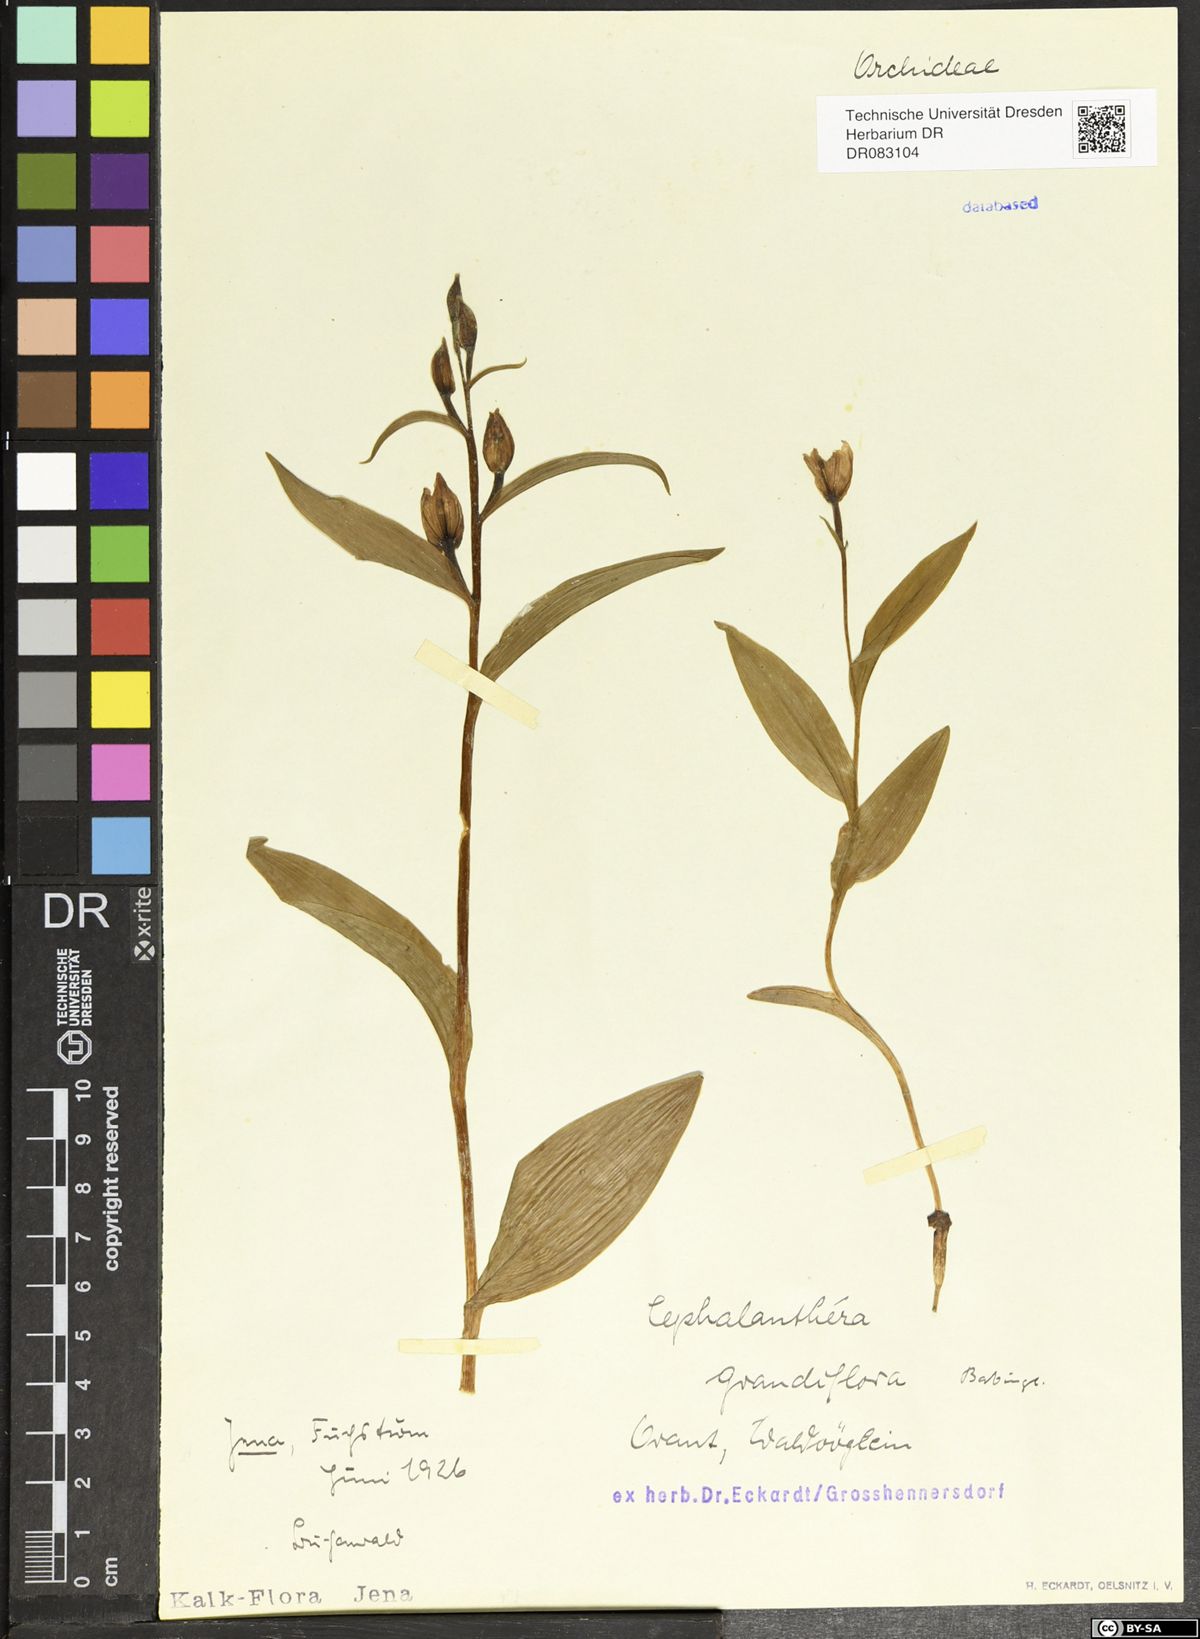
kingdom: Plantae
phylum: Tracheophyta
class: Liliopsida
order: Asparagales
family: Orchidaceae
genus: Cephalanthera
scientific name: Cephalanthera longifolia
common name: Narrow-leaved helleborine
